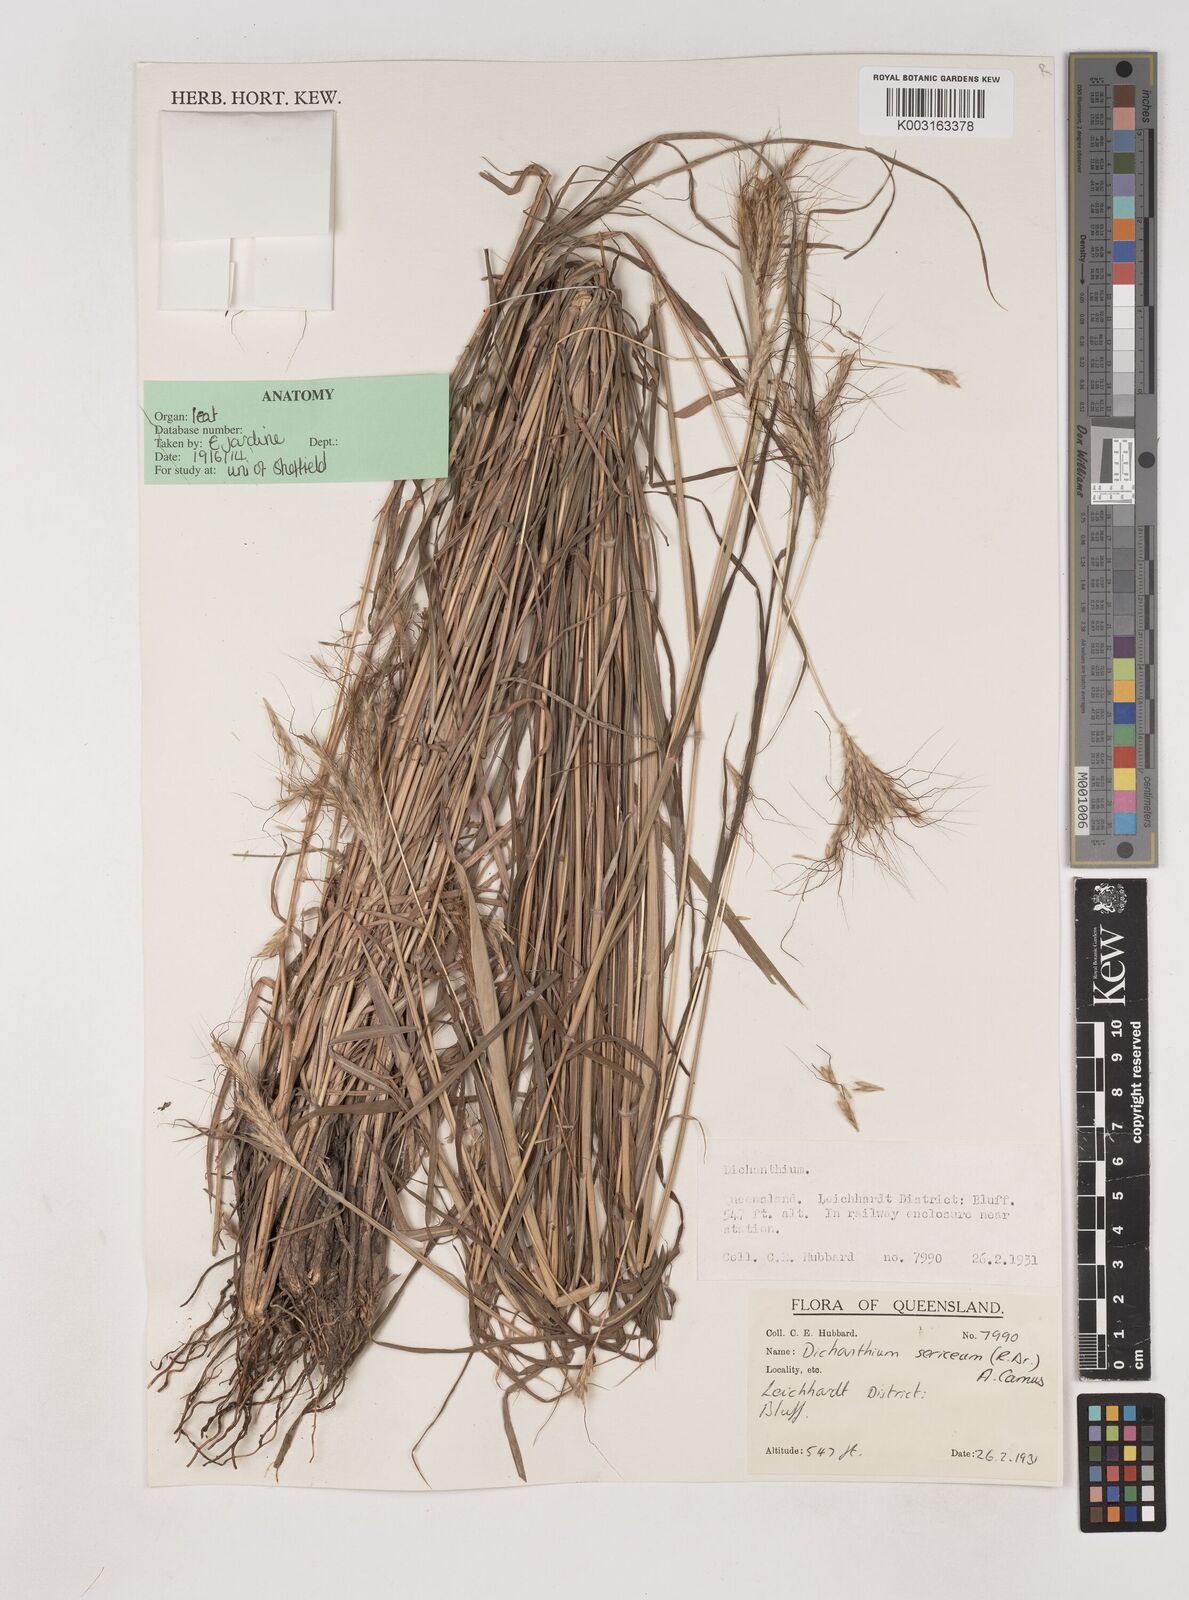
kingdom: Plantae
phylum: Tracheophyta
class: Liliopsida
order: Poales
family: Poaceae
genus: Dichanthium
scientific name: Dichanthium sericeum
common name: Silky bluestem
